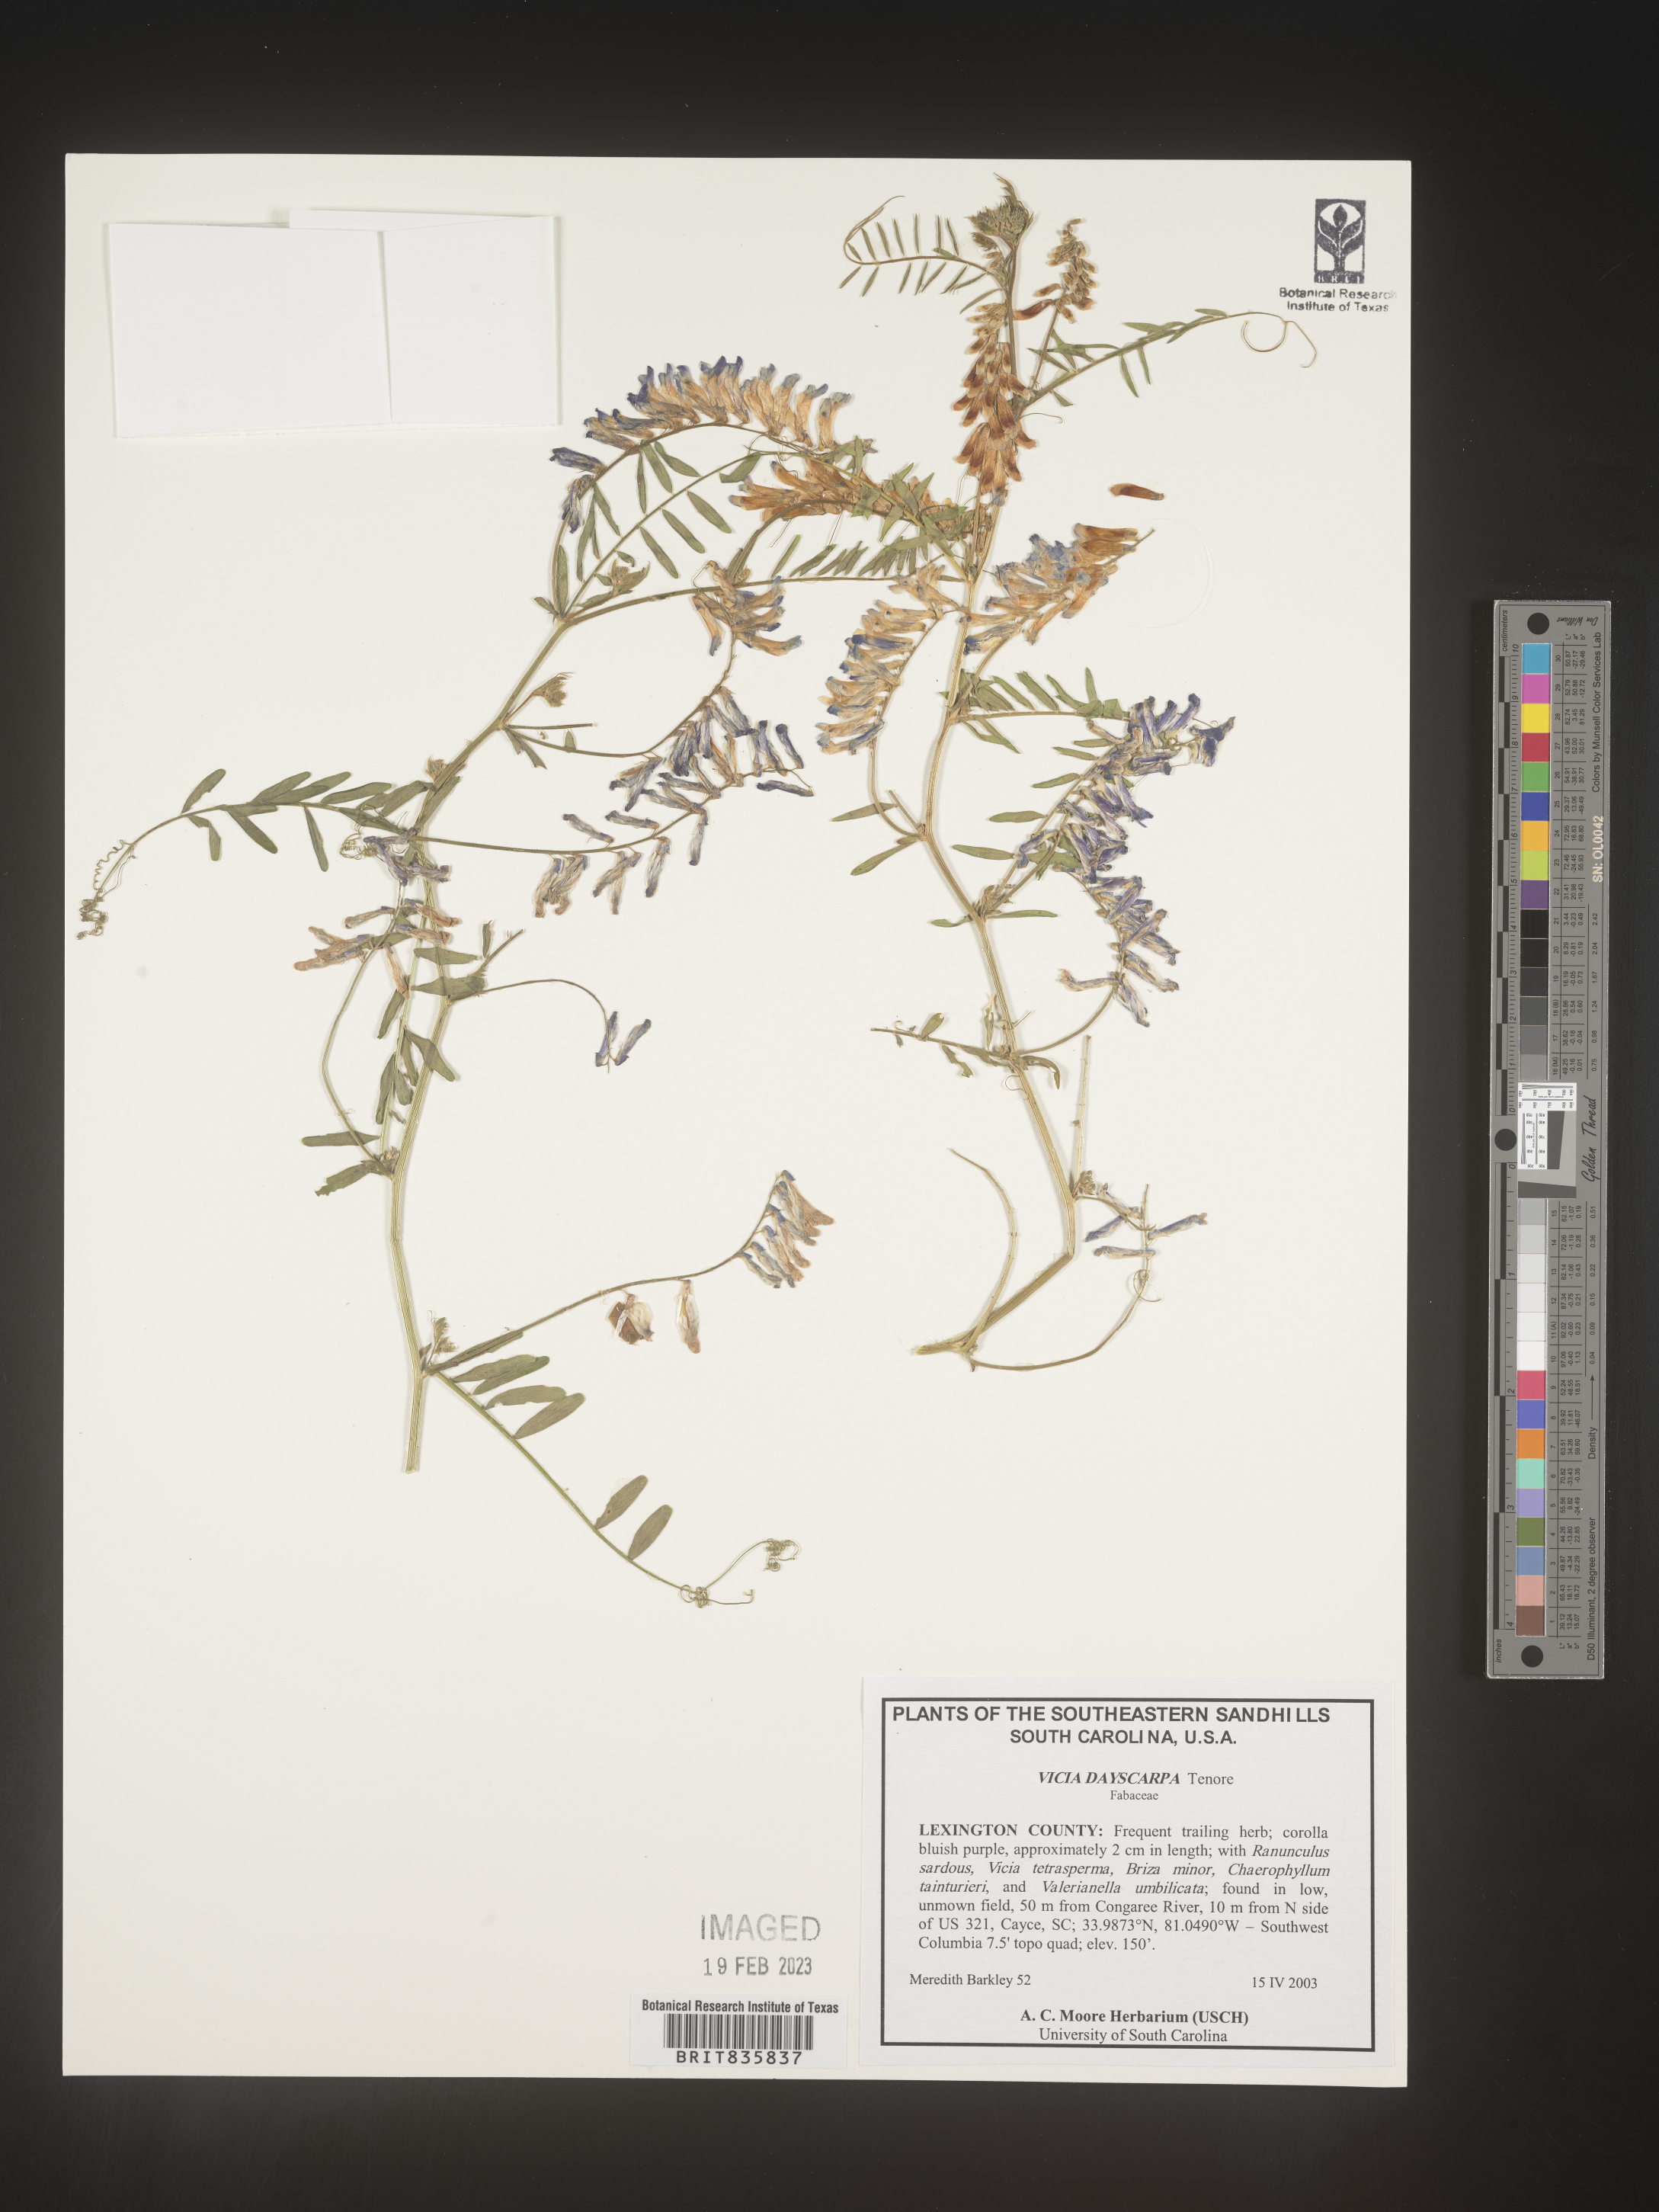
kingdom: Plantae
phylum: Tracheophyta
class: Magnoliopsida
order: Fabales
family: Fabaceae
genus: Vicia
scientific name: Vicia villosa
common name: Fodder vetch
